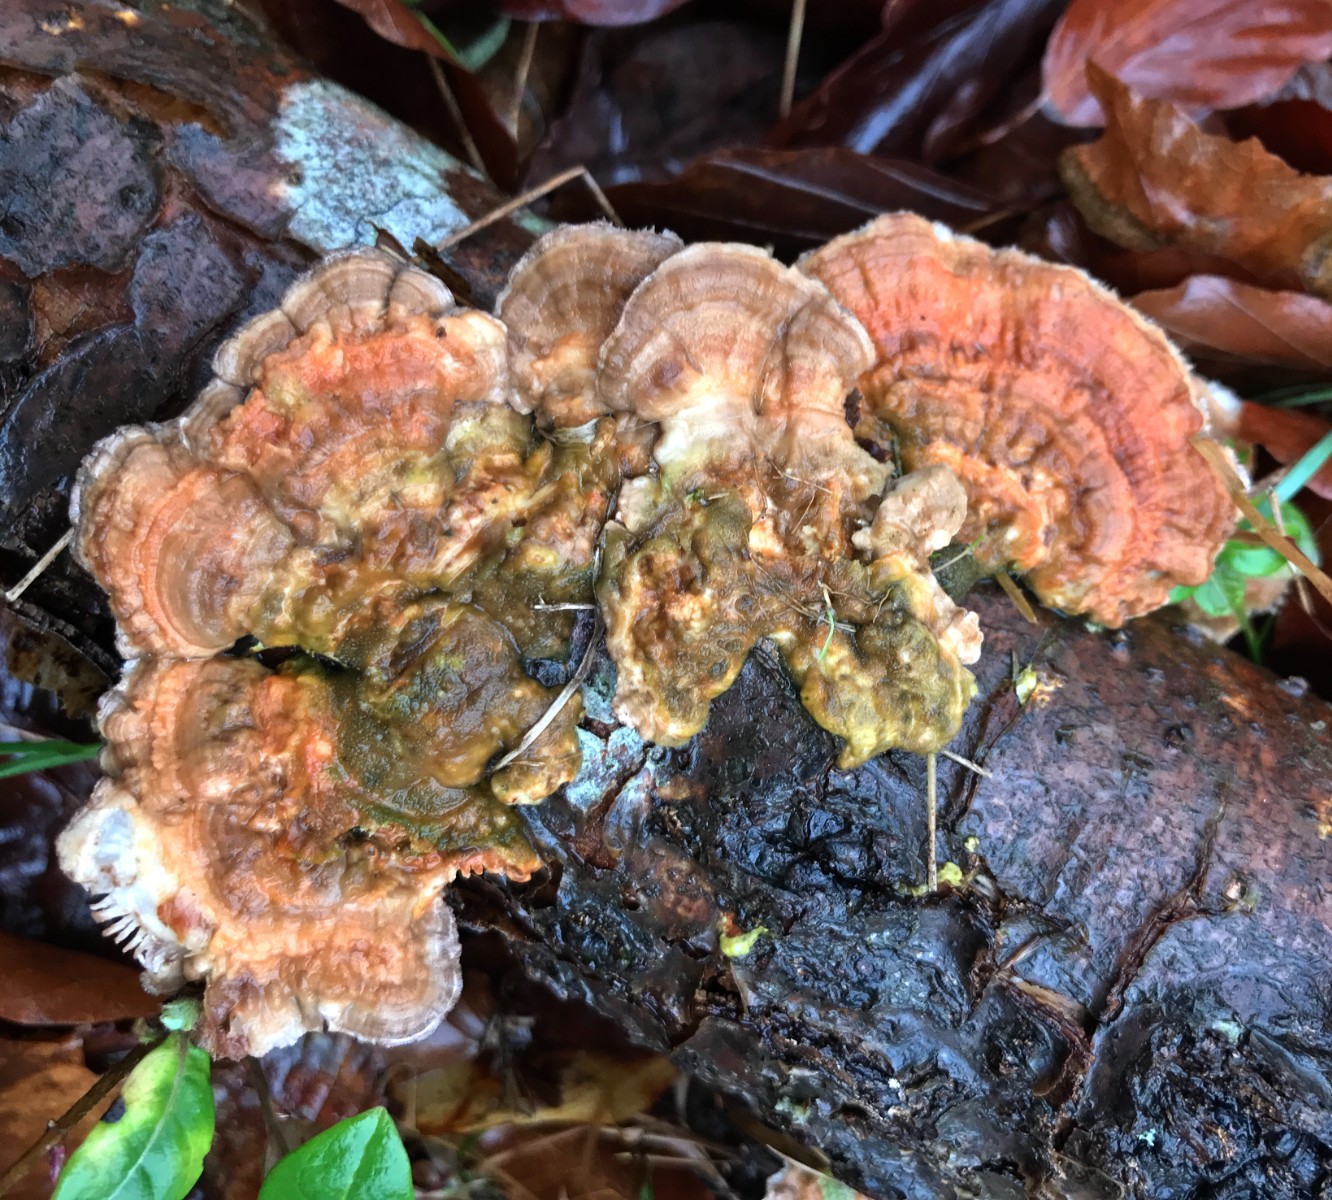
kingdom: Fungi
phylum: Basidiomycota
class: Agaricomycetes
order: Polyporales
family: Polyporaceae
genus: Lenzites
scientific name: Lenzites betulinus
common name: birke-læderporesvamp
